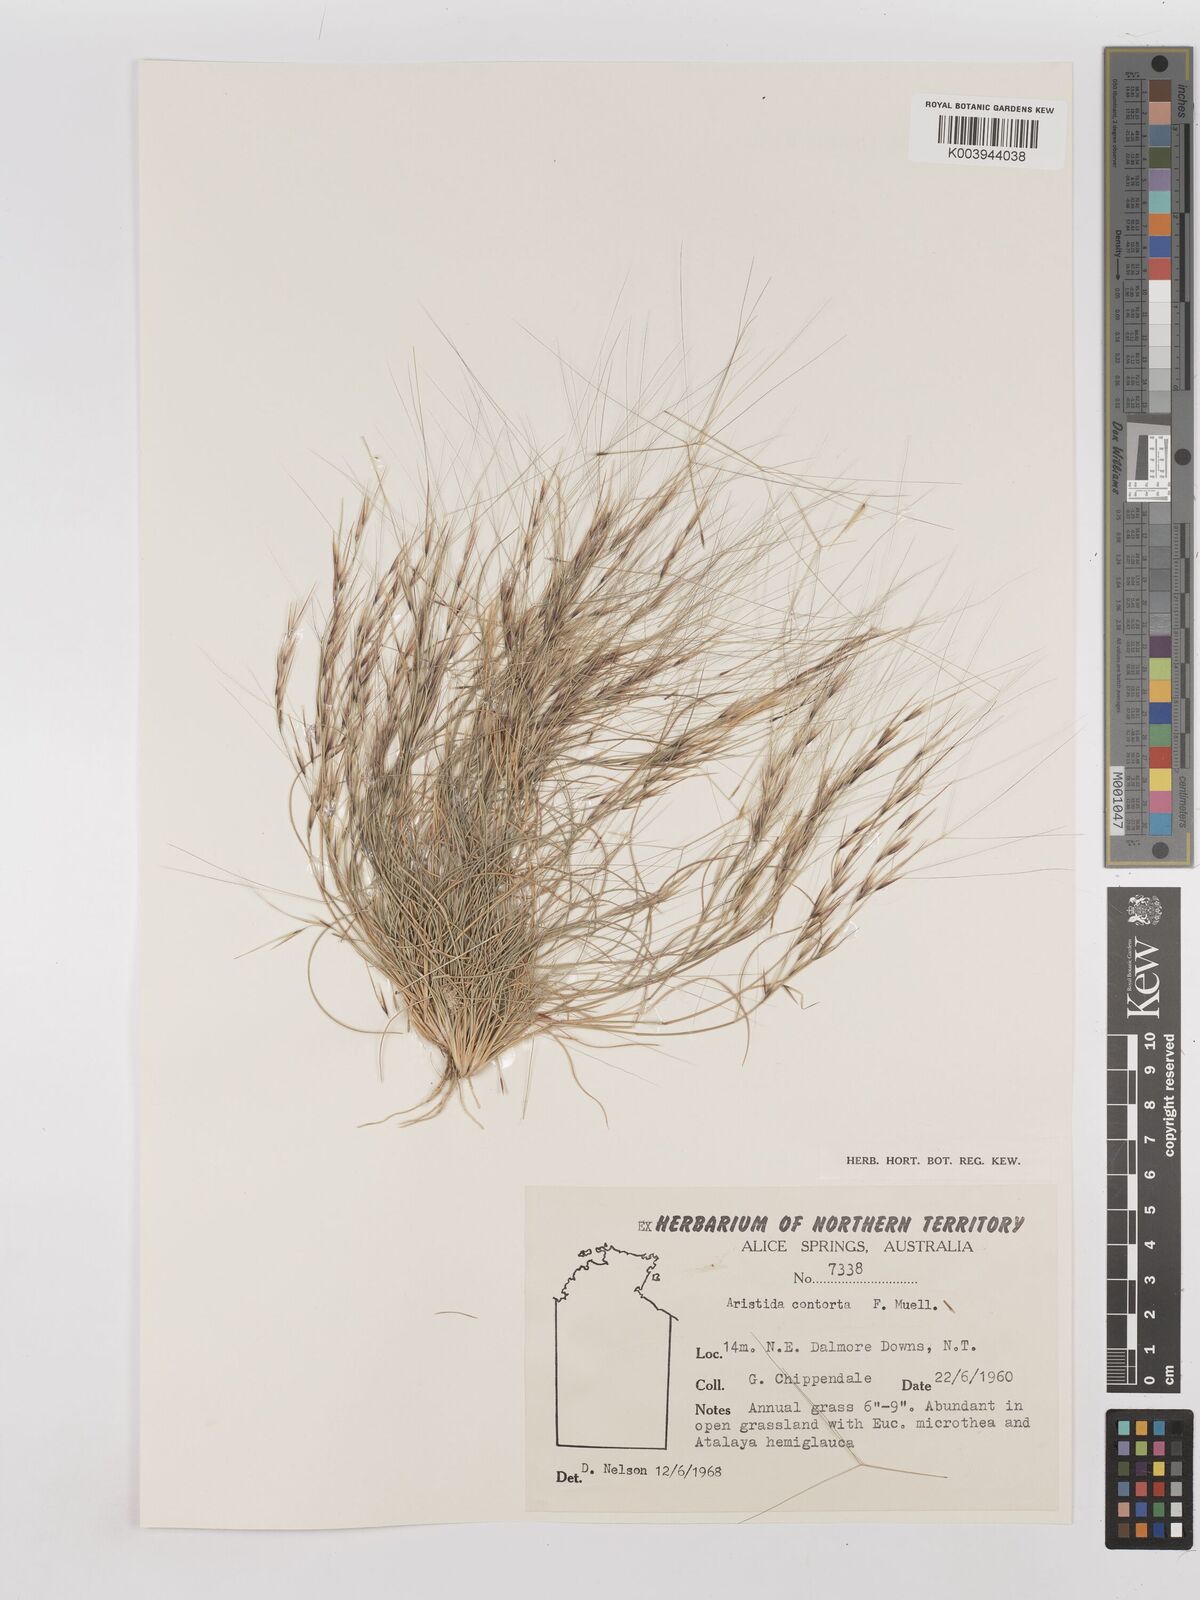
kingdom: Plantae
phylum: Tracheophyta
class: Liliopsida
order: Poales
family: Poaceae
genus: Aristida
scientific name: Aristida contorta
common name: Bunch kerosene grass
